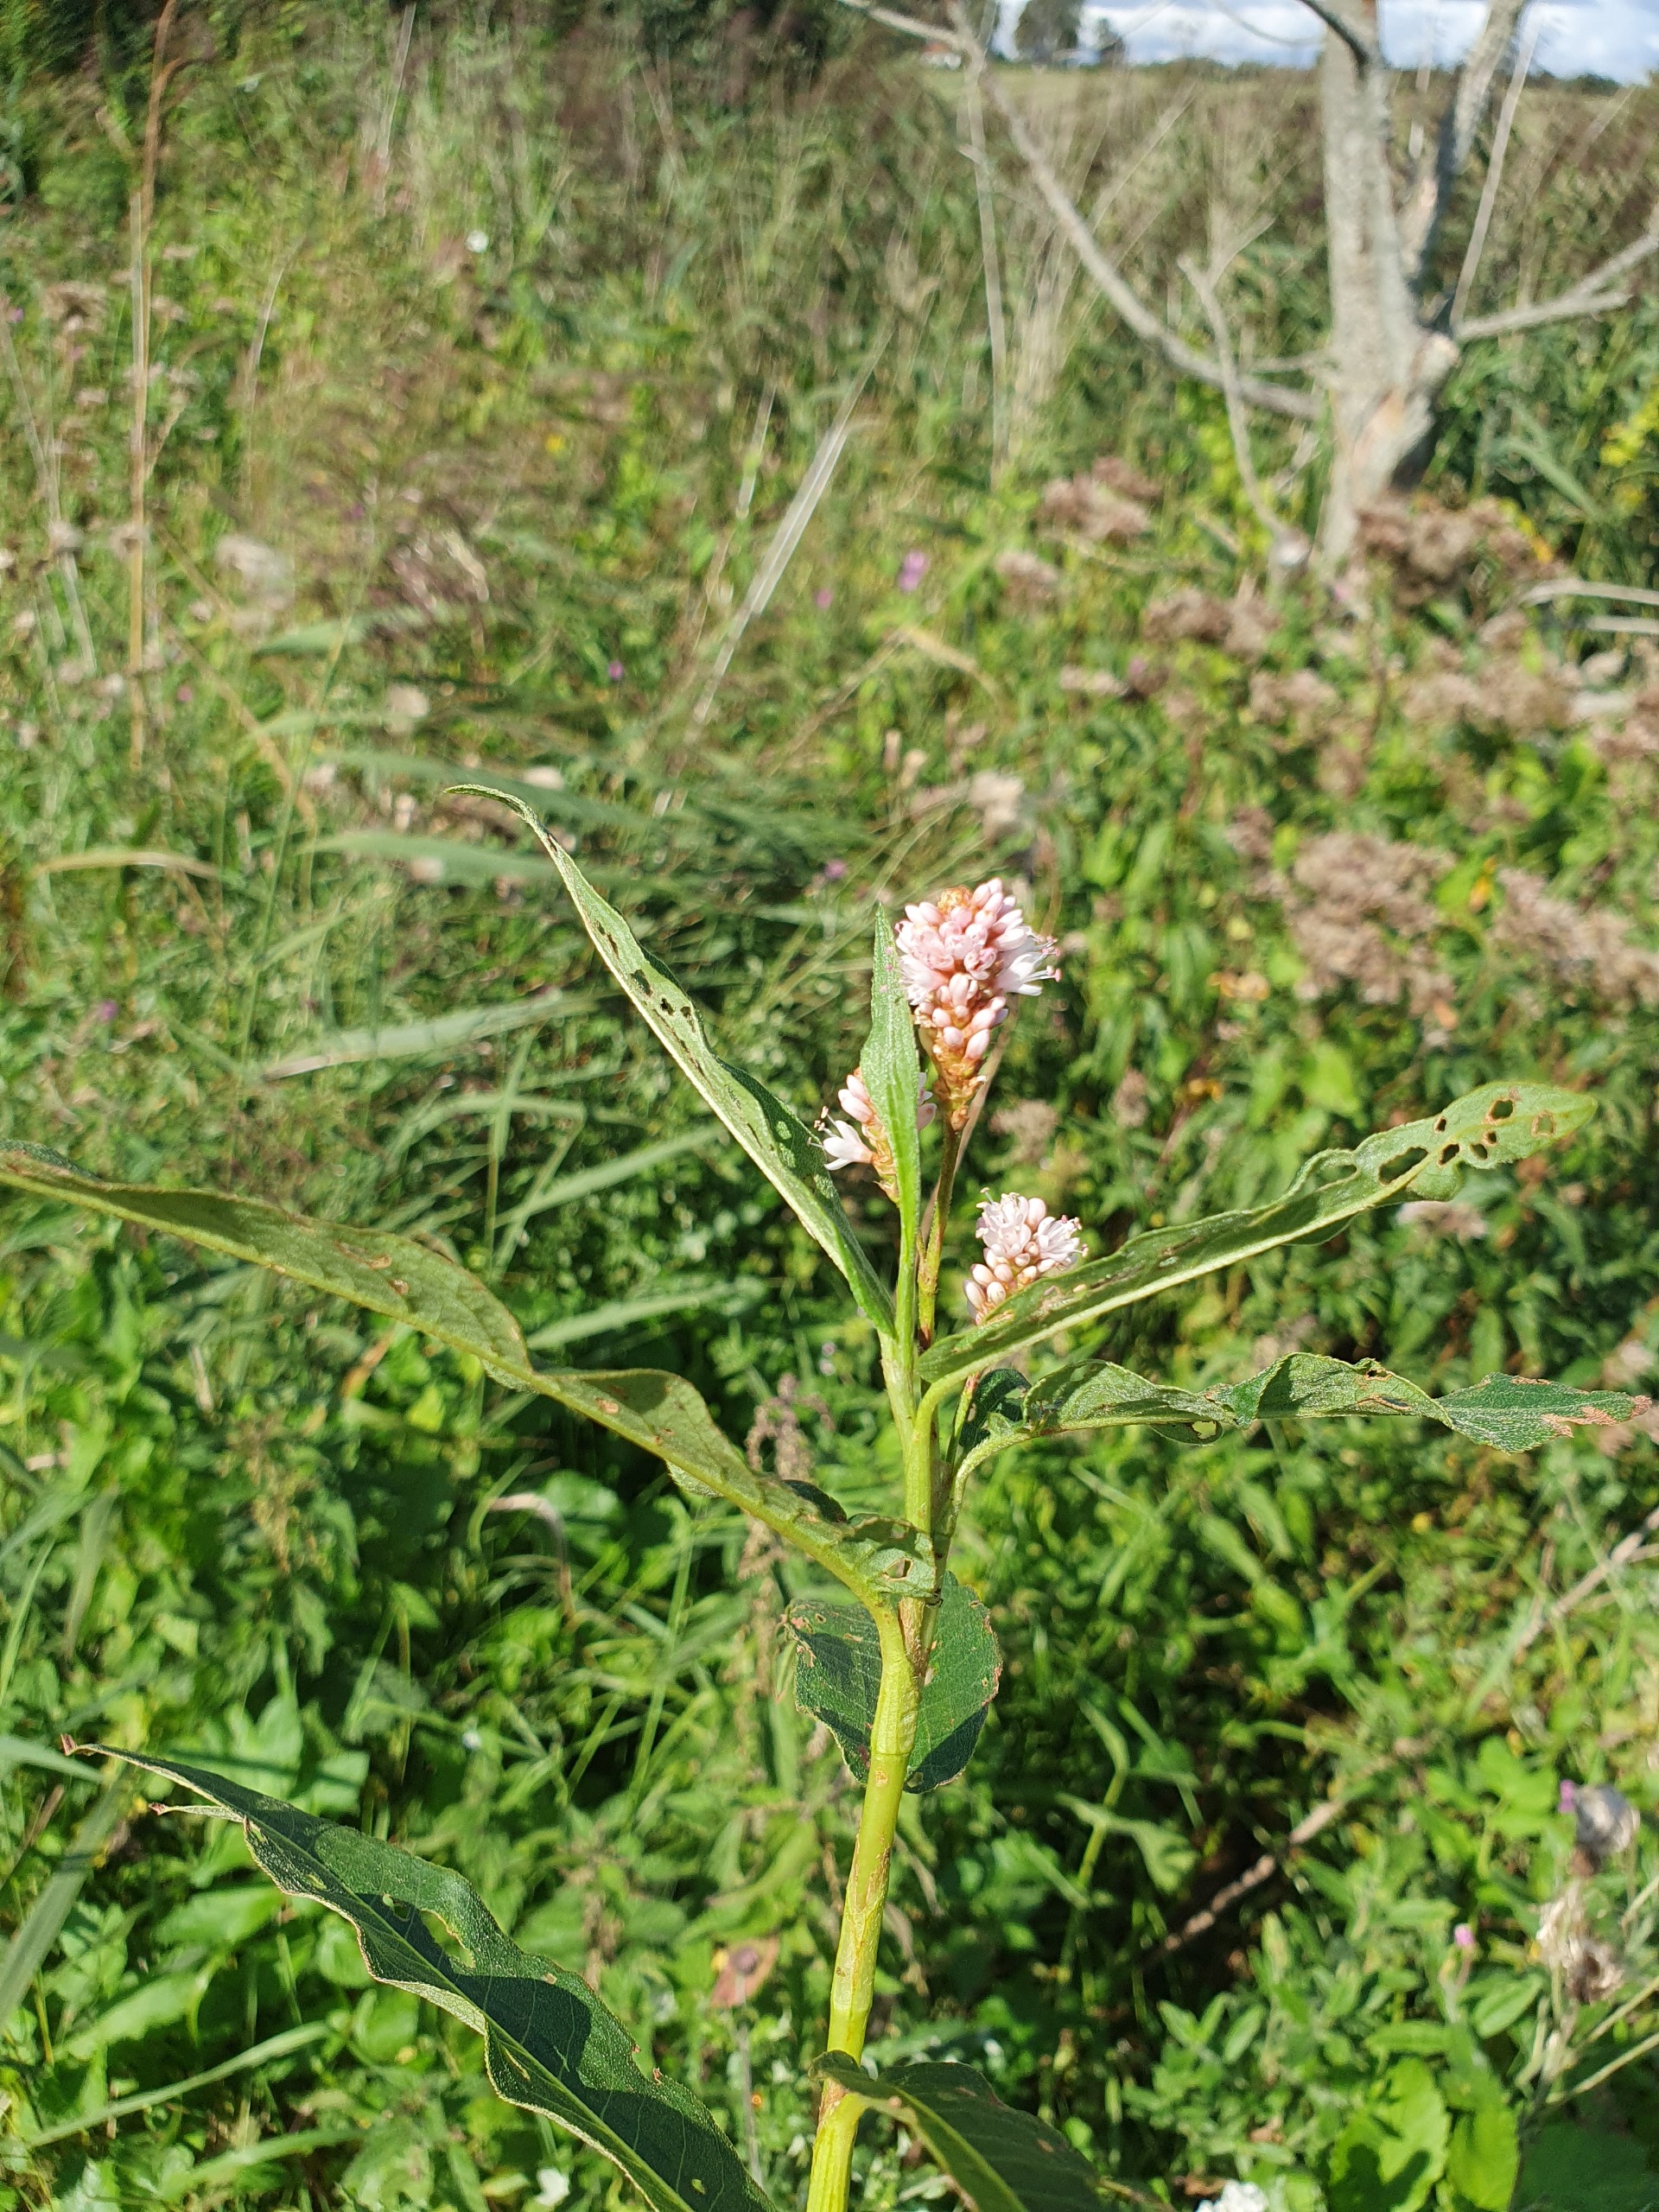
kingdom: Plantae
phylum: Tracheophyta
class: Magnoliopsida
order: Caryophyllales
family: Polygonaceae
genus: Persicaria
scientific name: Persicaria amphibia
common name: Vand-pileurt
